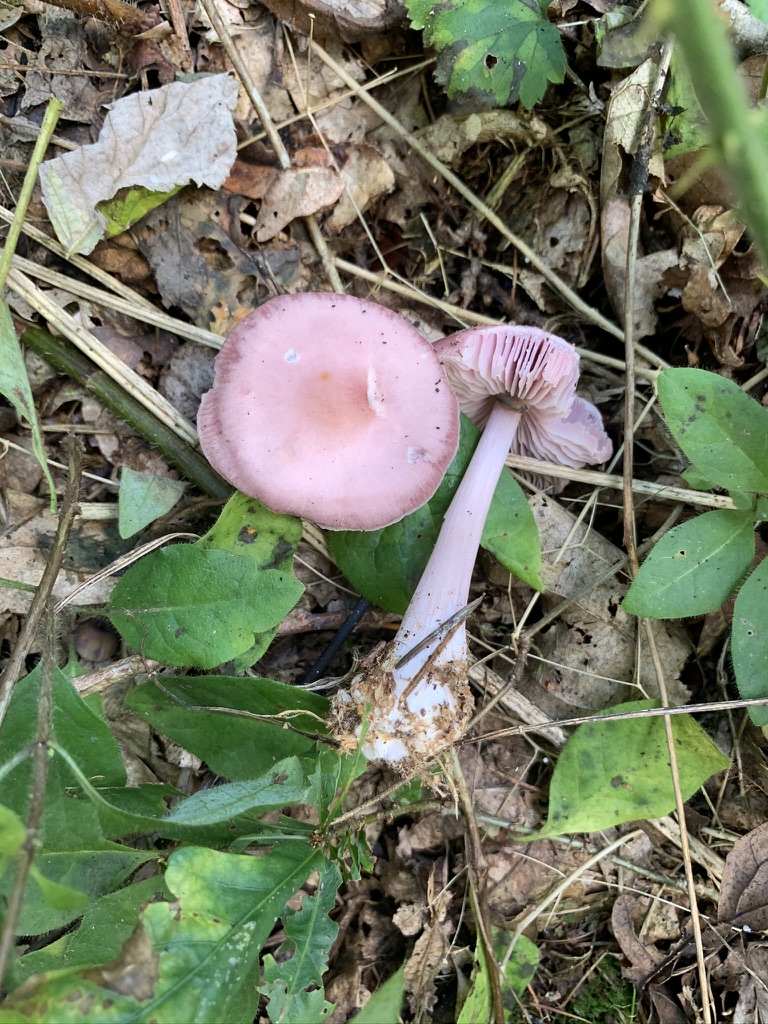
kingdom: Fungi
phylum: Basidiomycota
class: Agaricomycetes
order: Agaricales
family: Mycenaceae
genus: Mycena
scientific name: Mycena rosea
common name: rosa huesvamp
